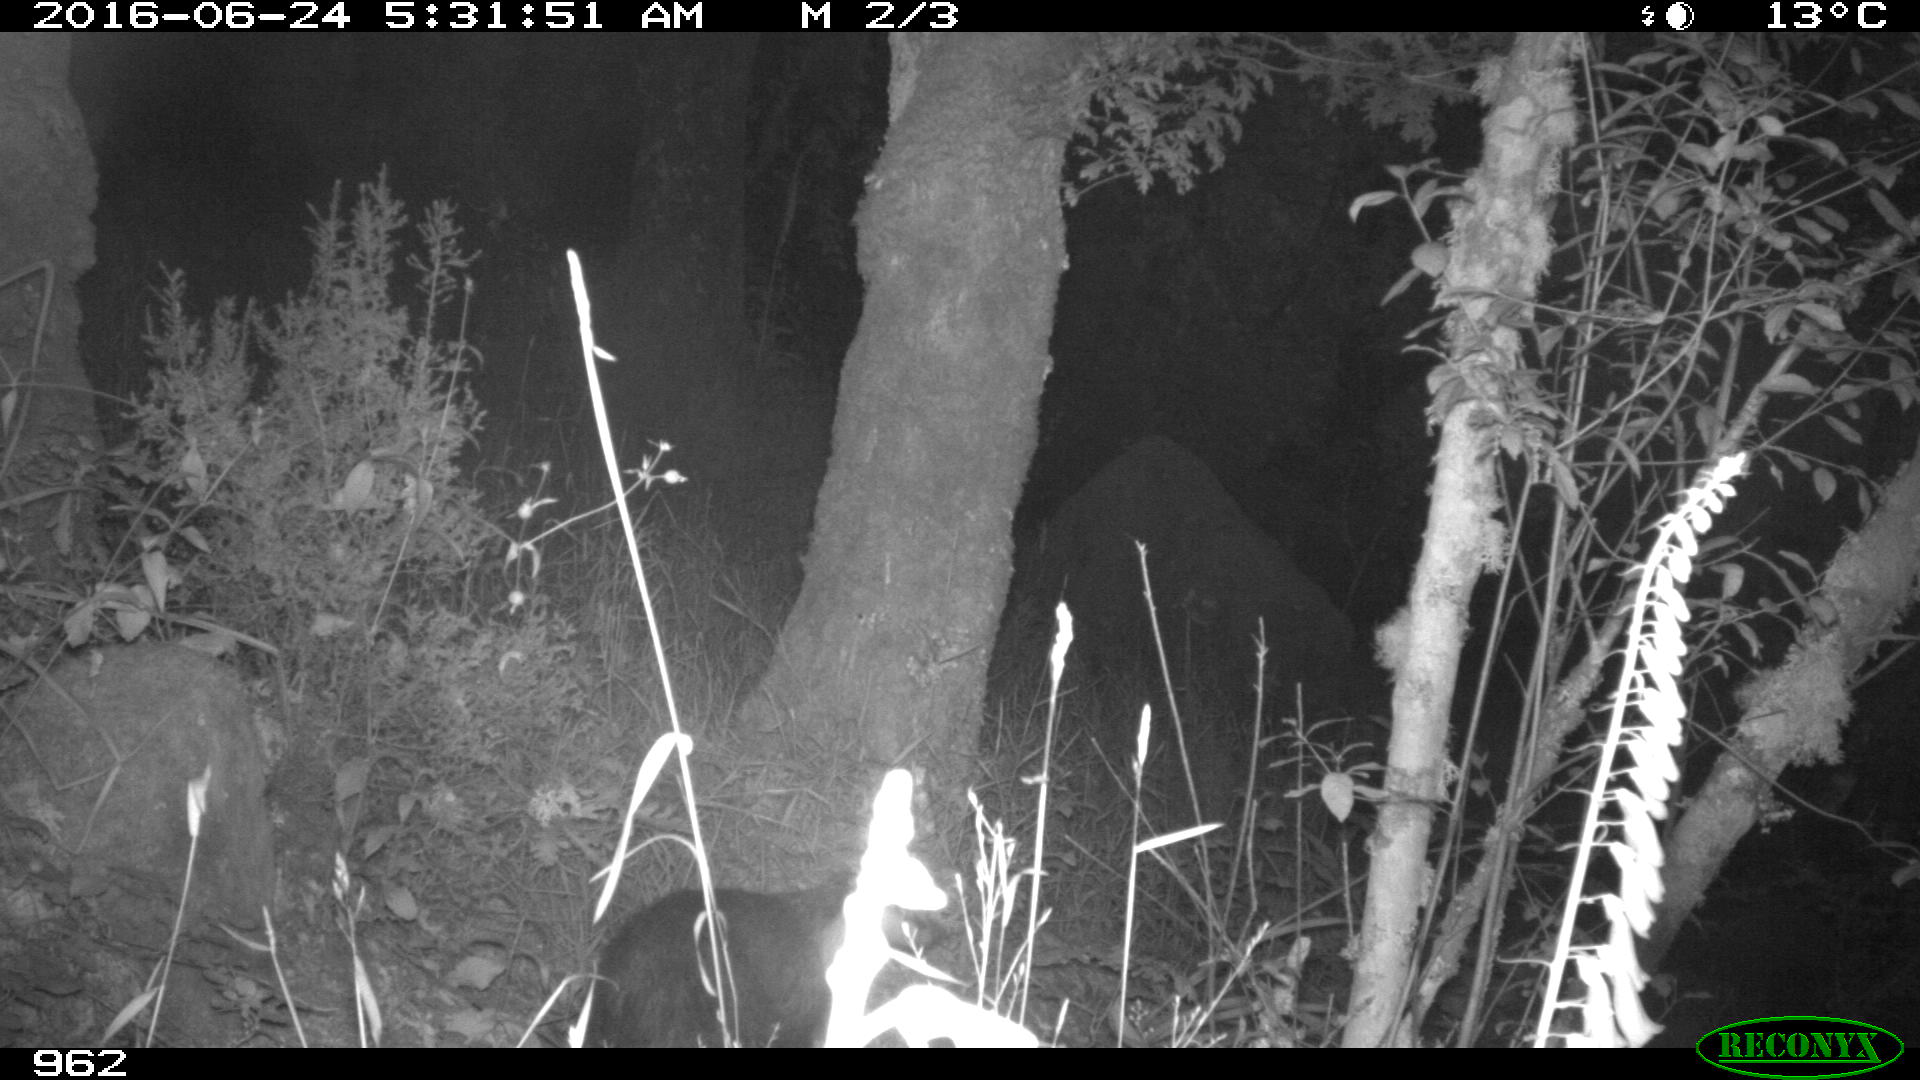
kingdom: Animalia
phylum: Chordata
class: Mammalia
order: Artiodactyla
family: Suidae
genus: Sus
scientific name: Sus scrofa
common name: Wild boar
